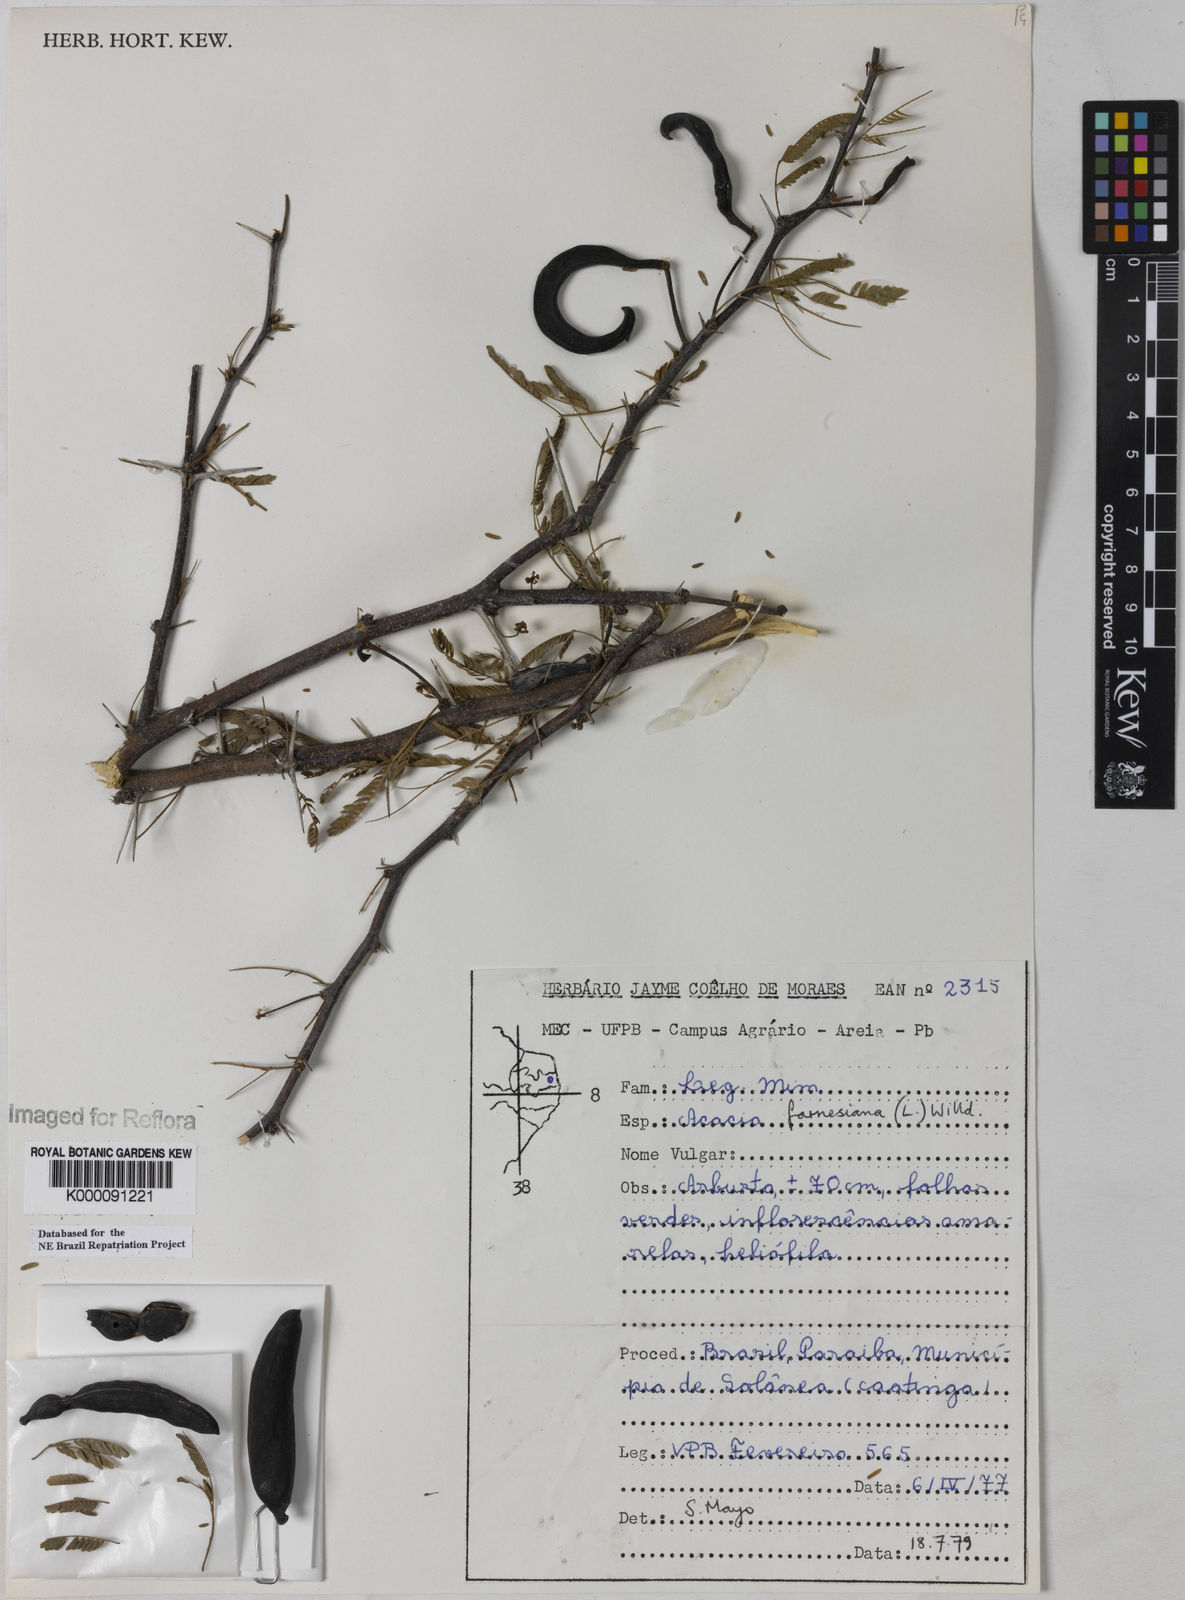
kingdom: Plantae
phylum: Tracheophyta
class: Magnoliopsida
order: Fabales
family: Fabaceae
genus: Vachellia
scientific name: Vachellia farnesiana
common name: Sweet acacia
